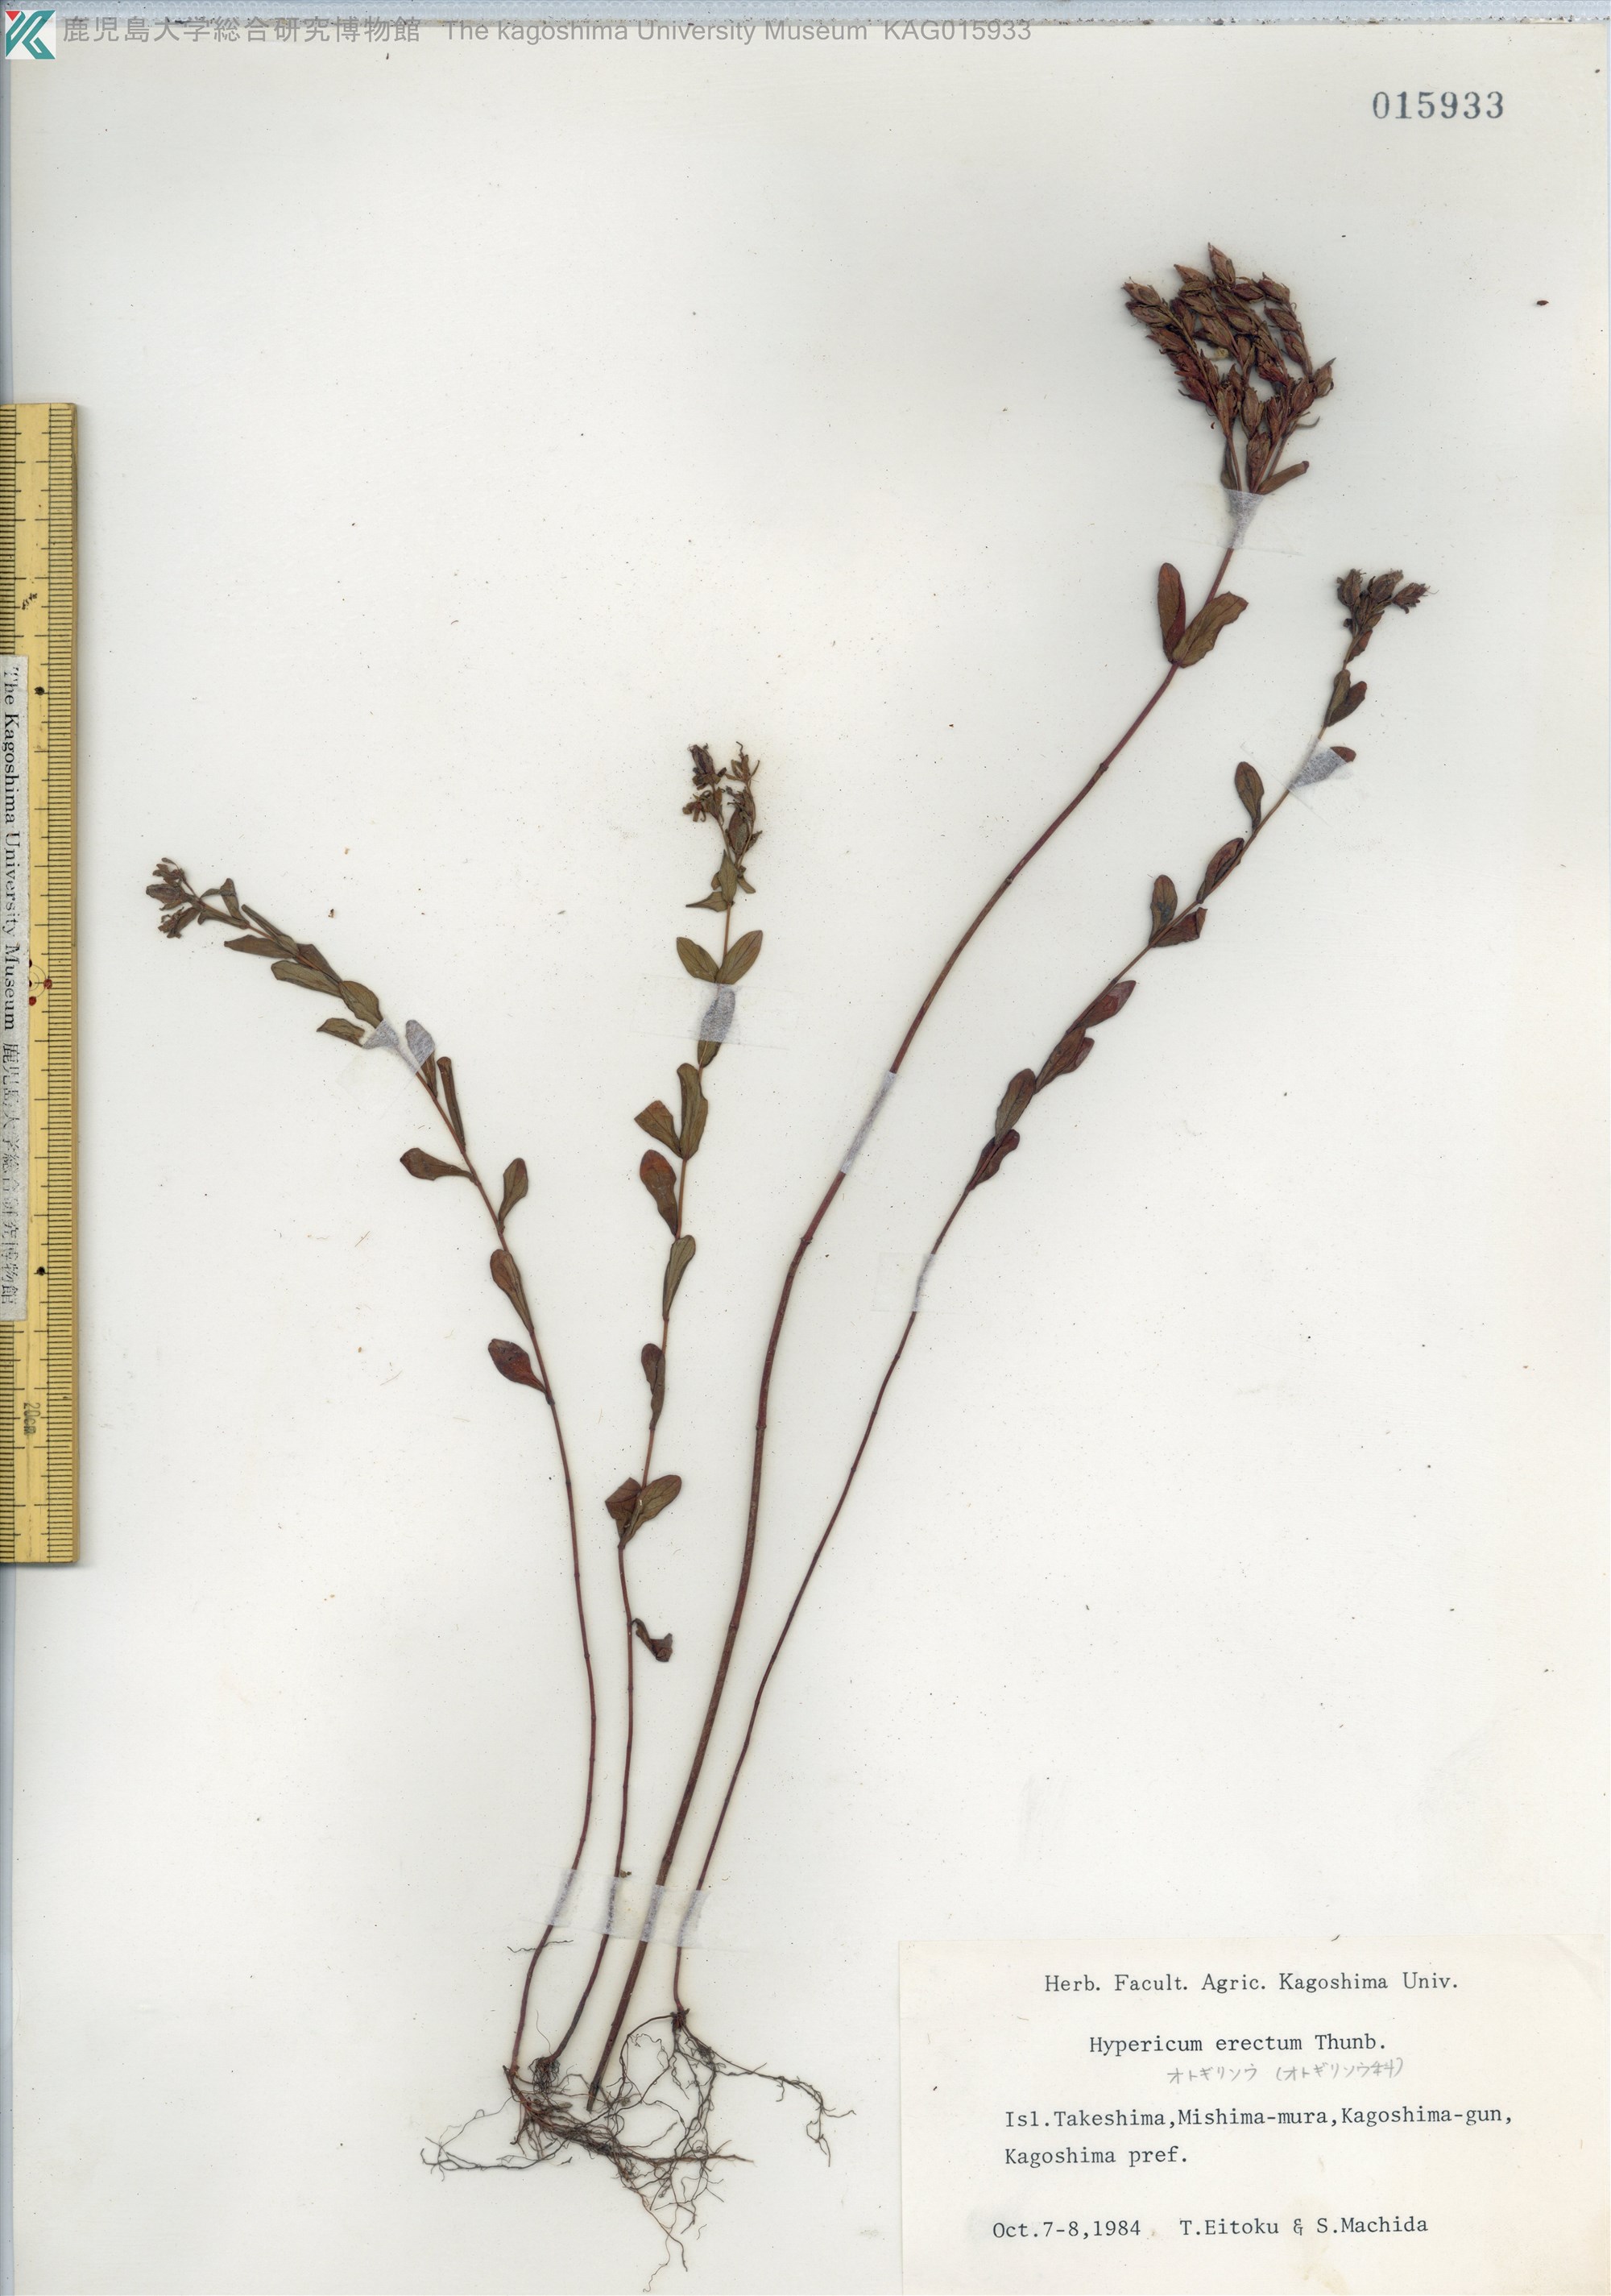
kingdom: Plantae
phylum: Tracheophyta
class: Magnoliopsida
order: Malpighiales
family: Hypericaceae
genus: Hypericum
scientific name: Hypericum erectum
